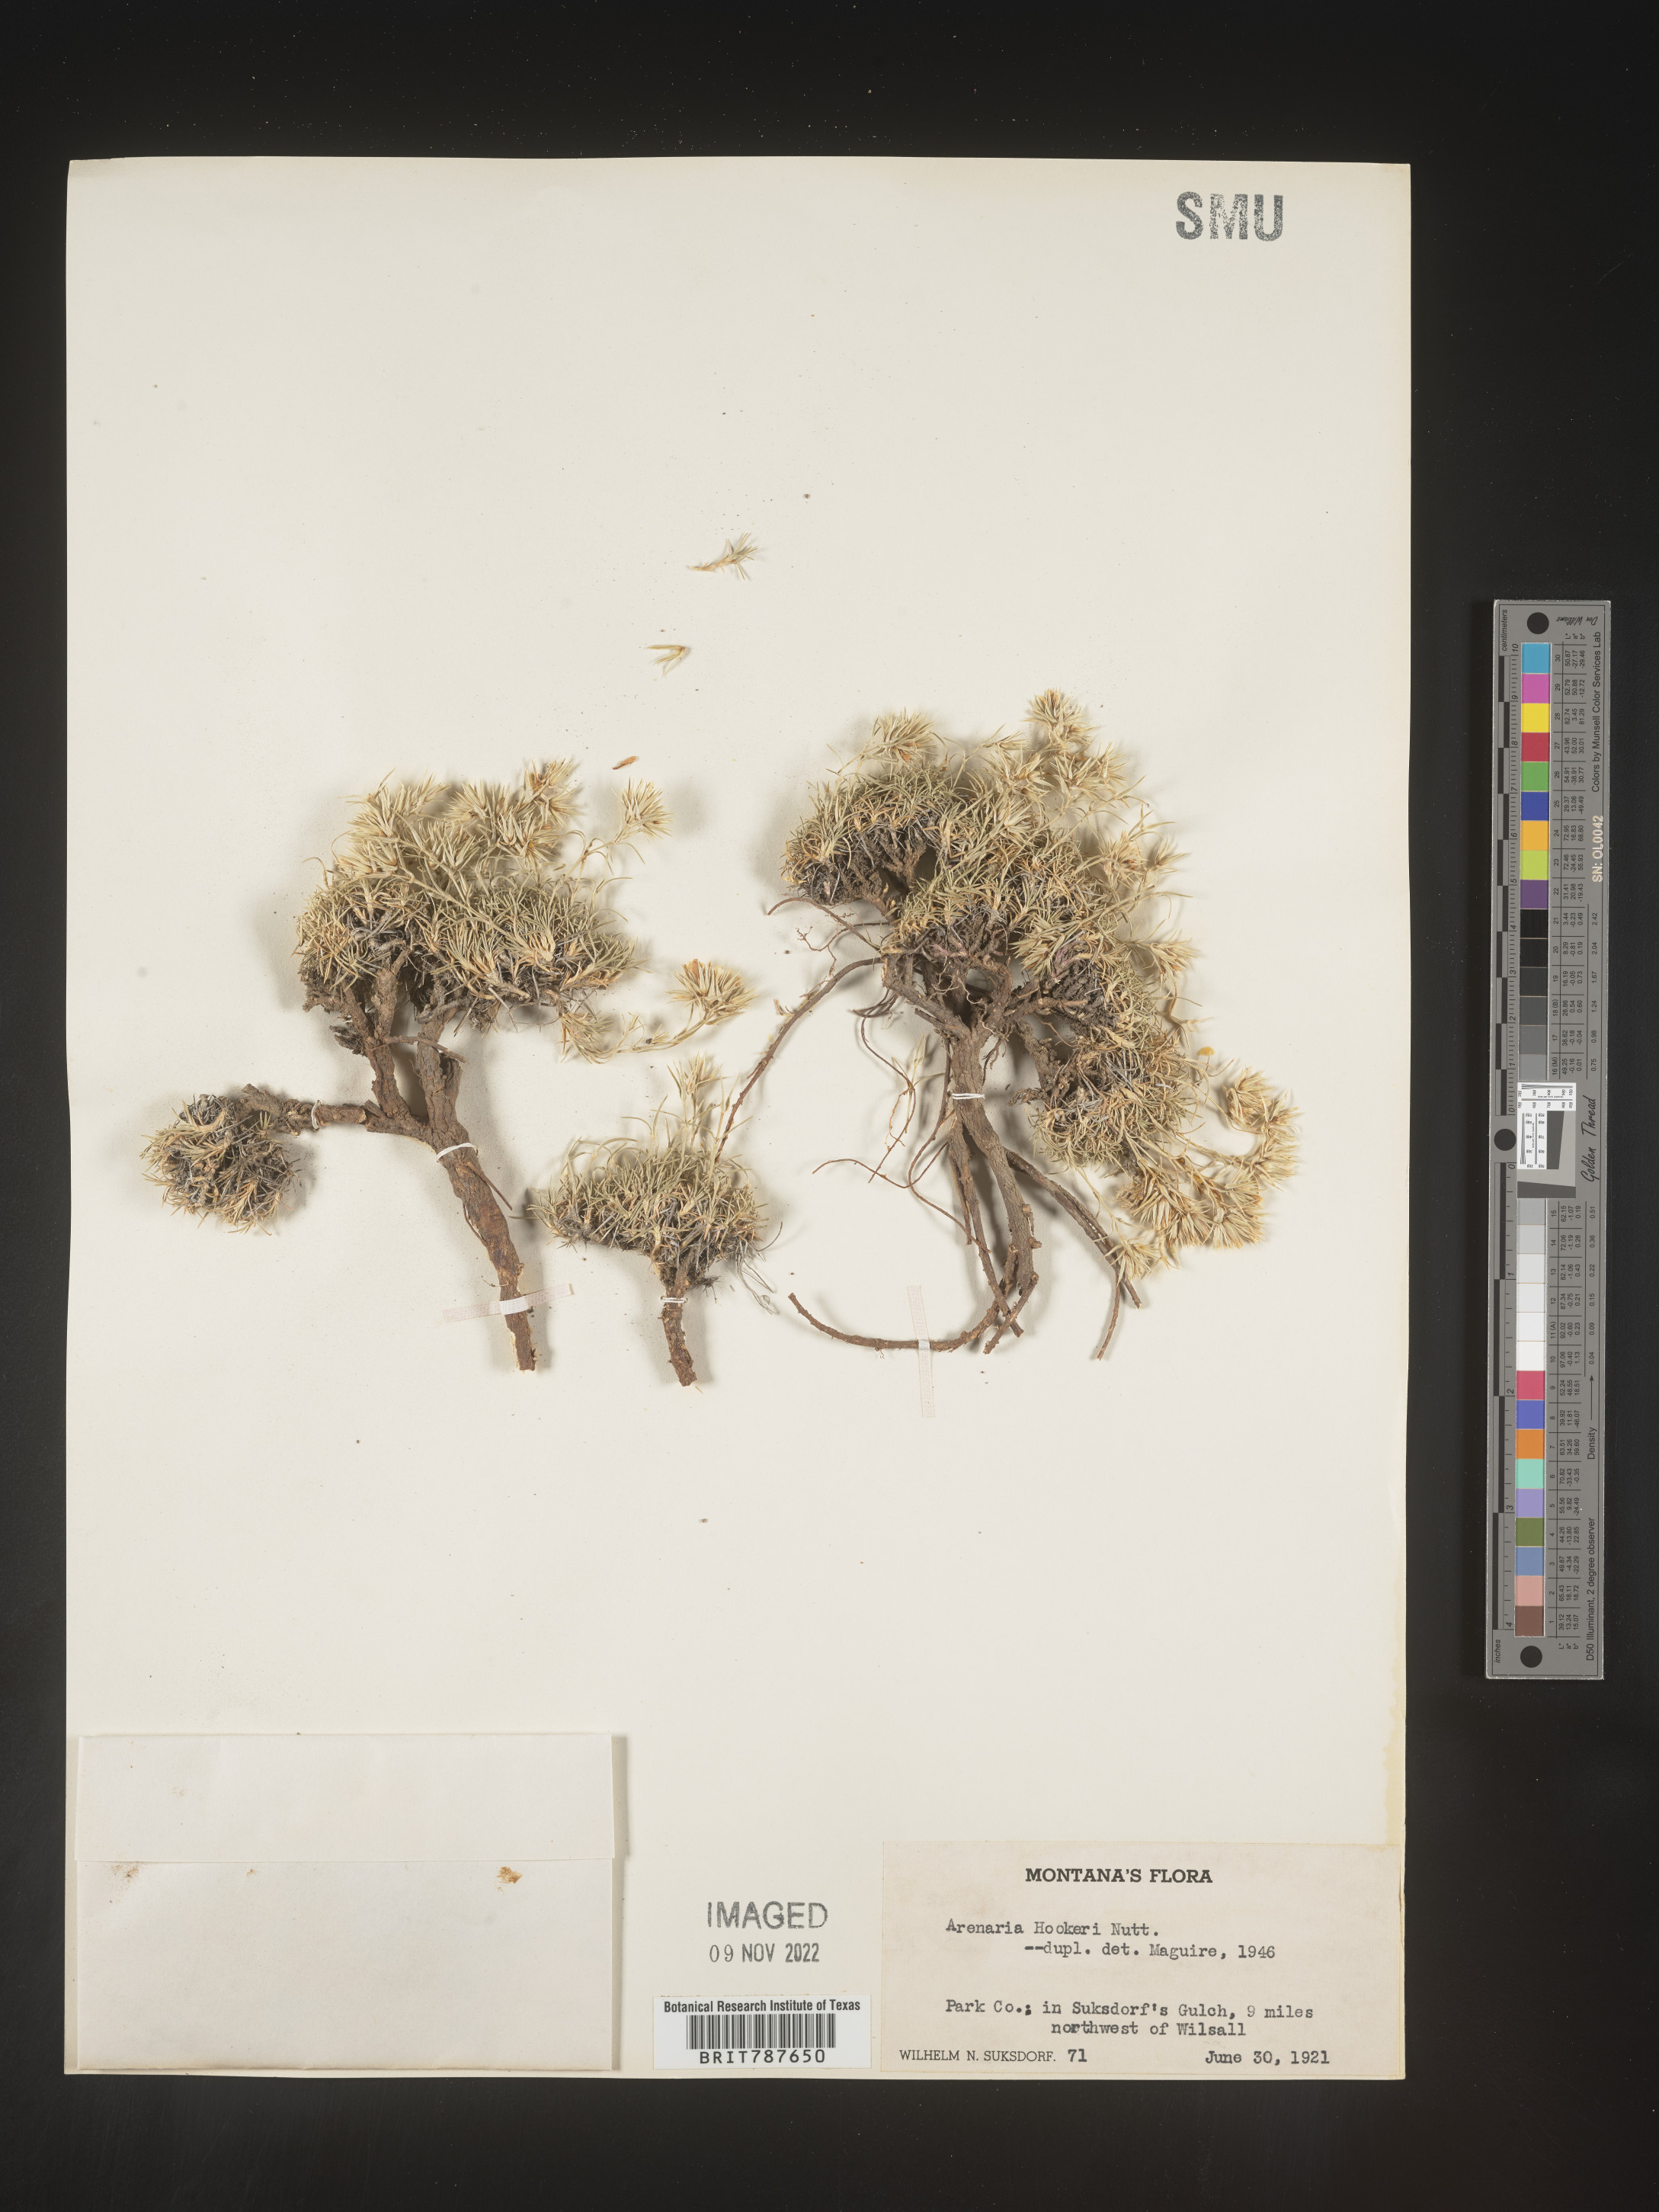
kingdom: Plantae
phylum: Tracheophyta
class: Magnoliopsida
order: Caryophyllales
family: Caryophyllaceae
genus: Arenaria
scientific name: Arenaria
